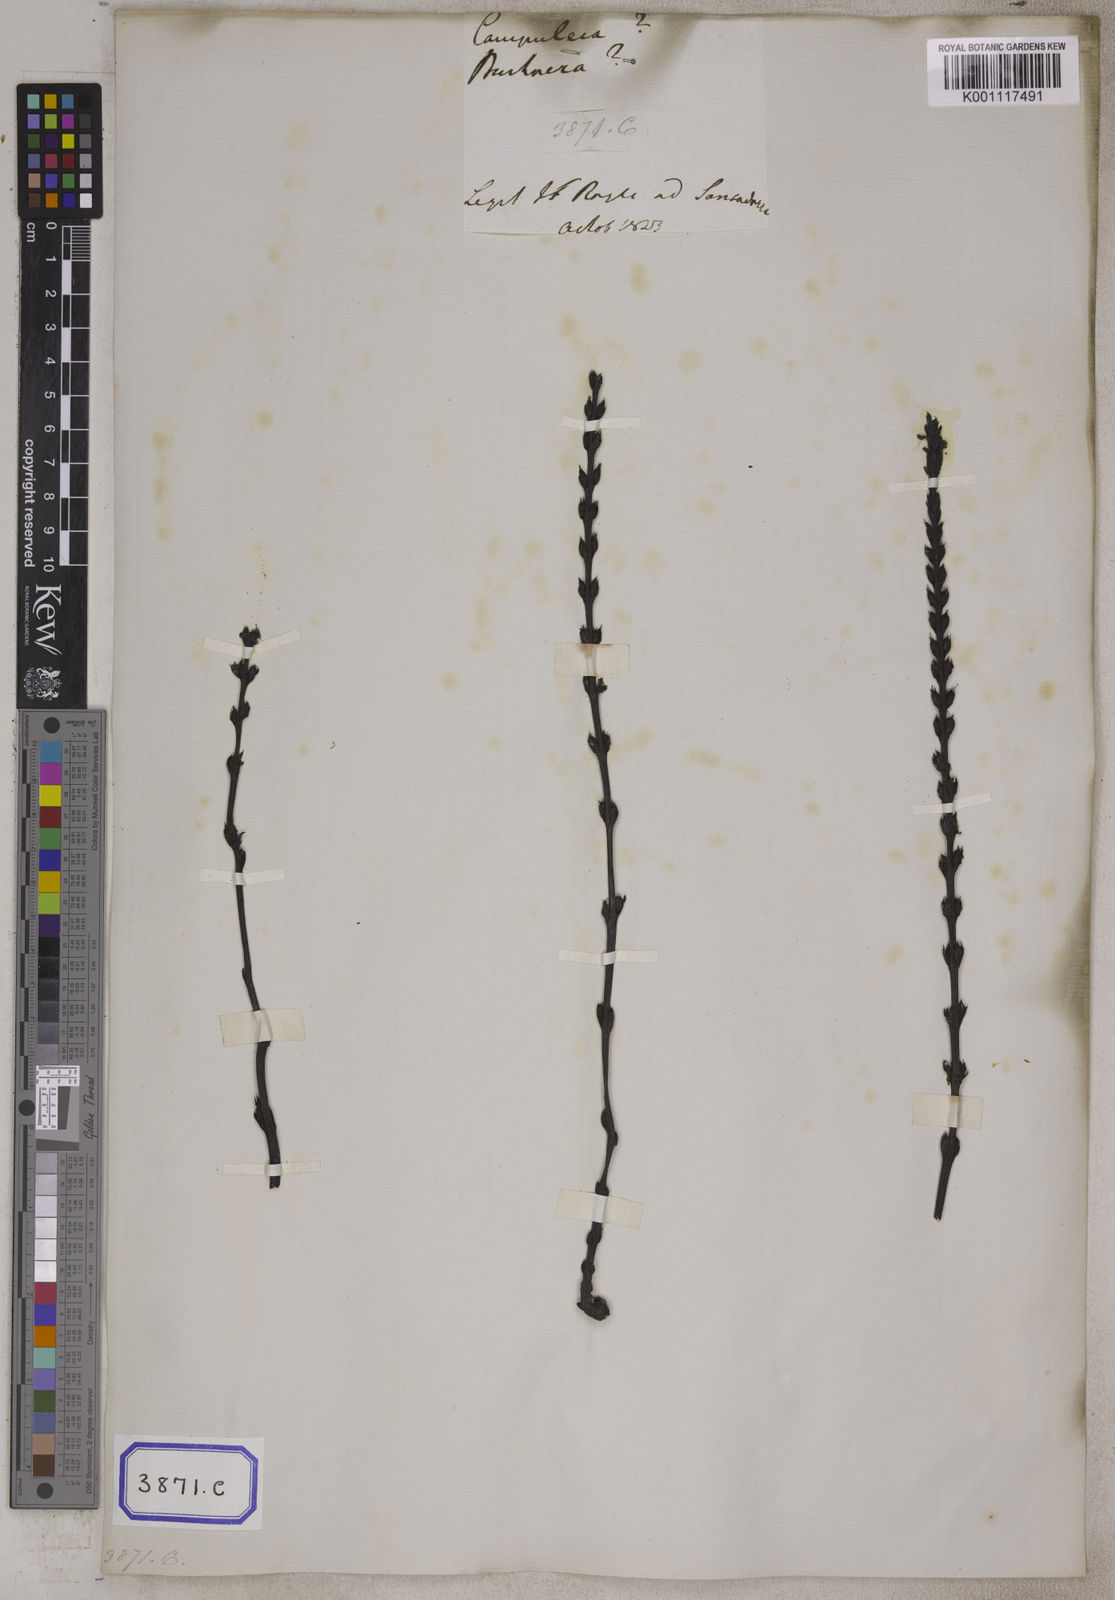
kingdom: Plantae
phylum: Tracheophyta
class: Magnoliopsida
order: Lamiales
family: Orobanchaceae
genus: Striga
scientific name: Striga gesnerioides
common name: Cowpea witchweed
